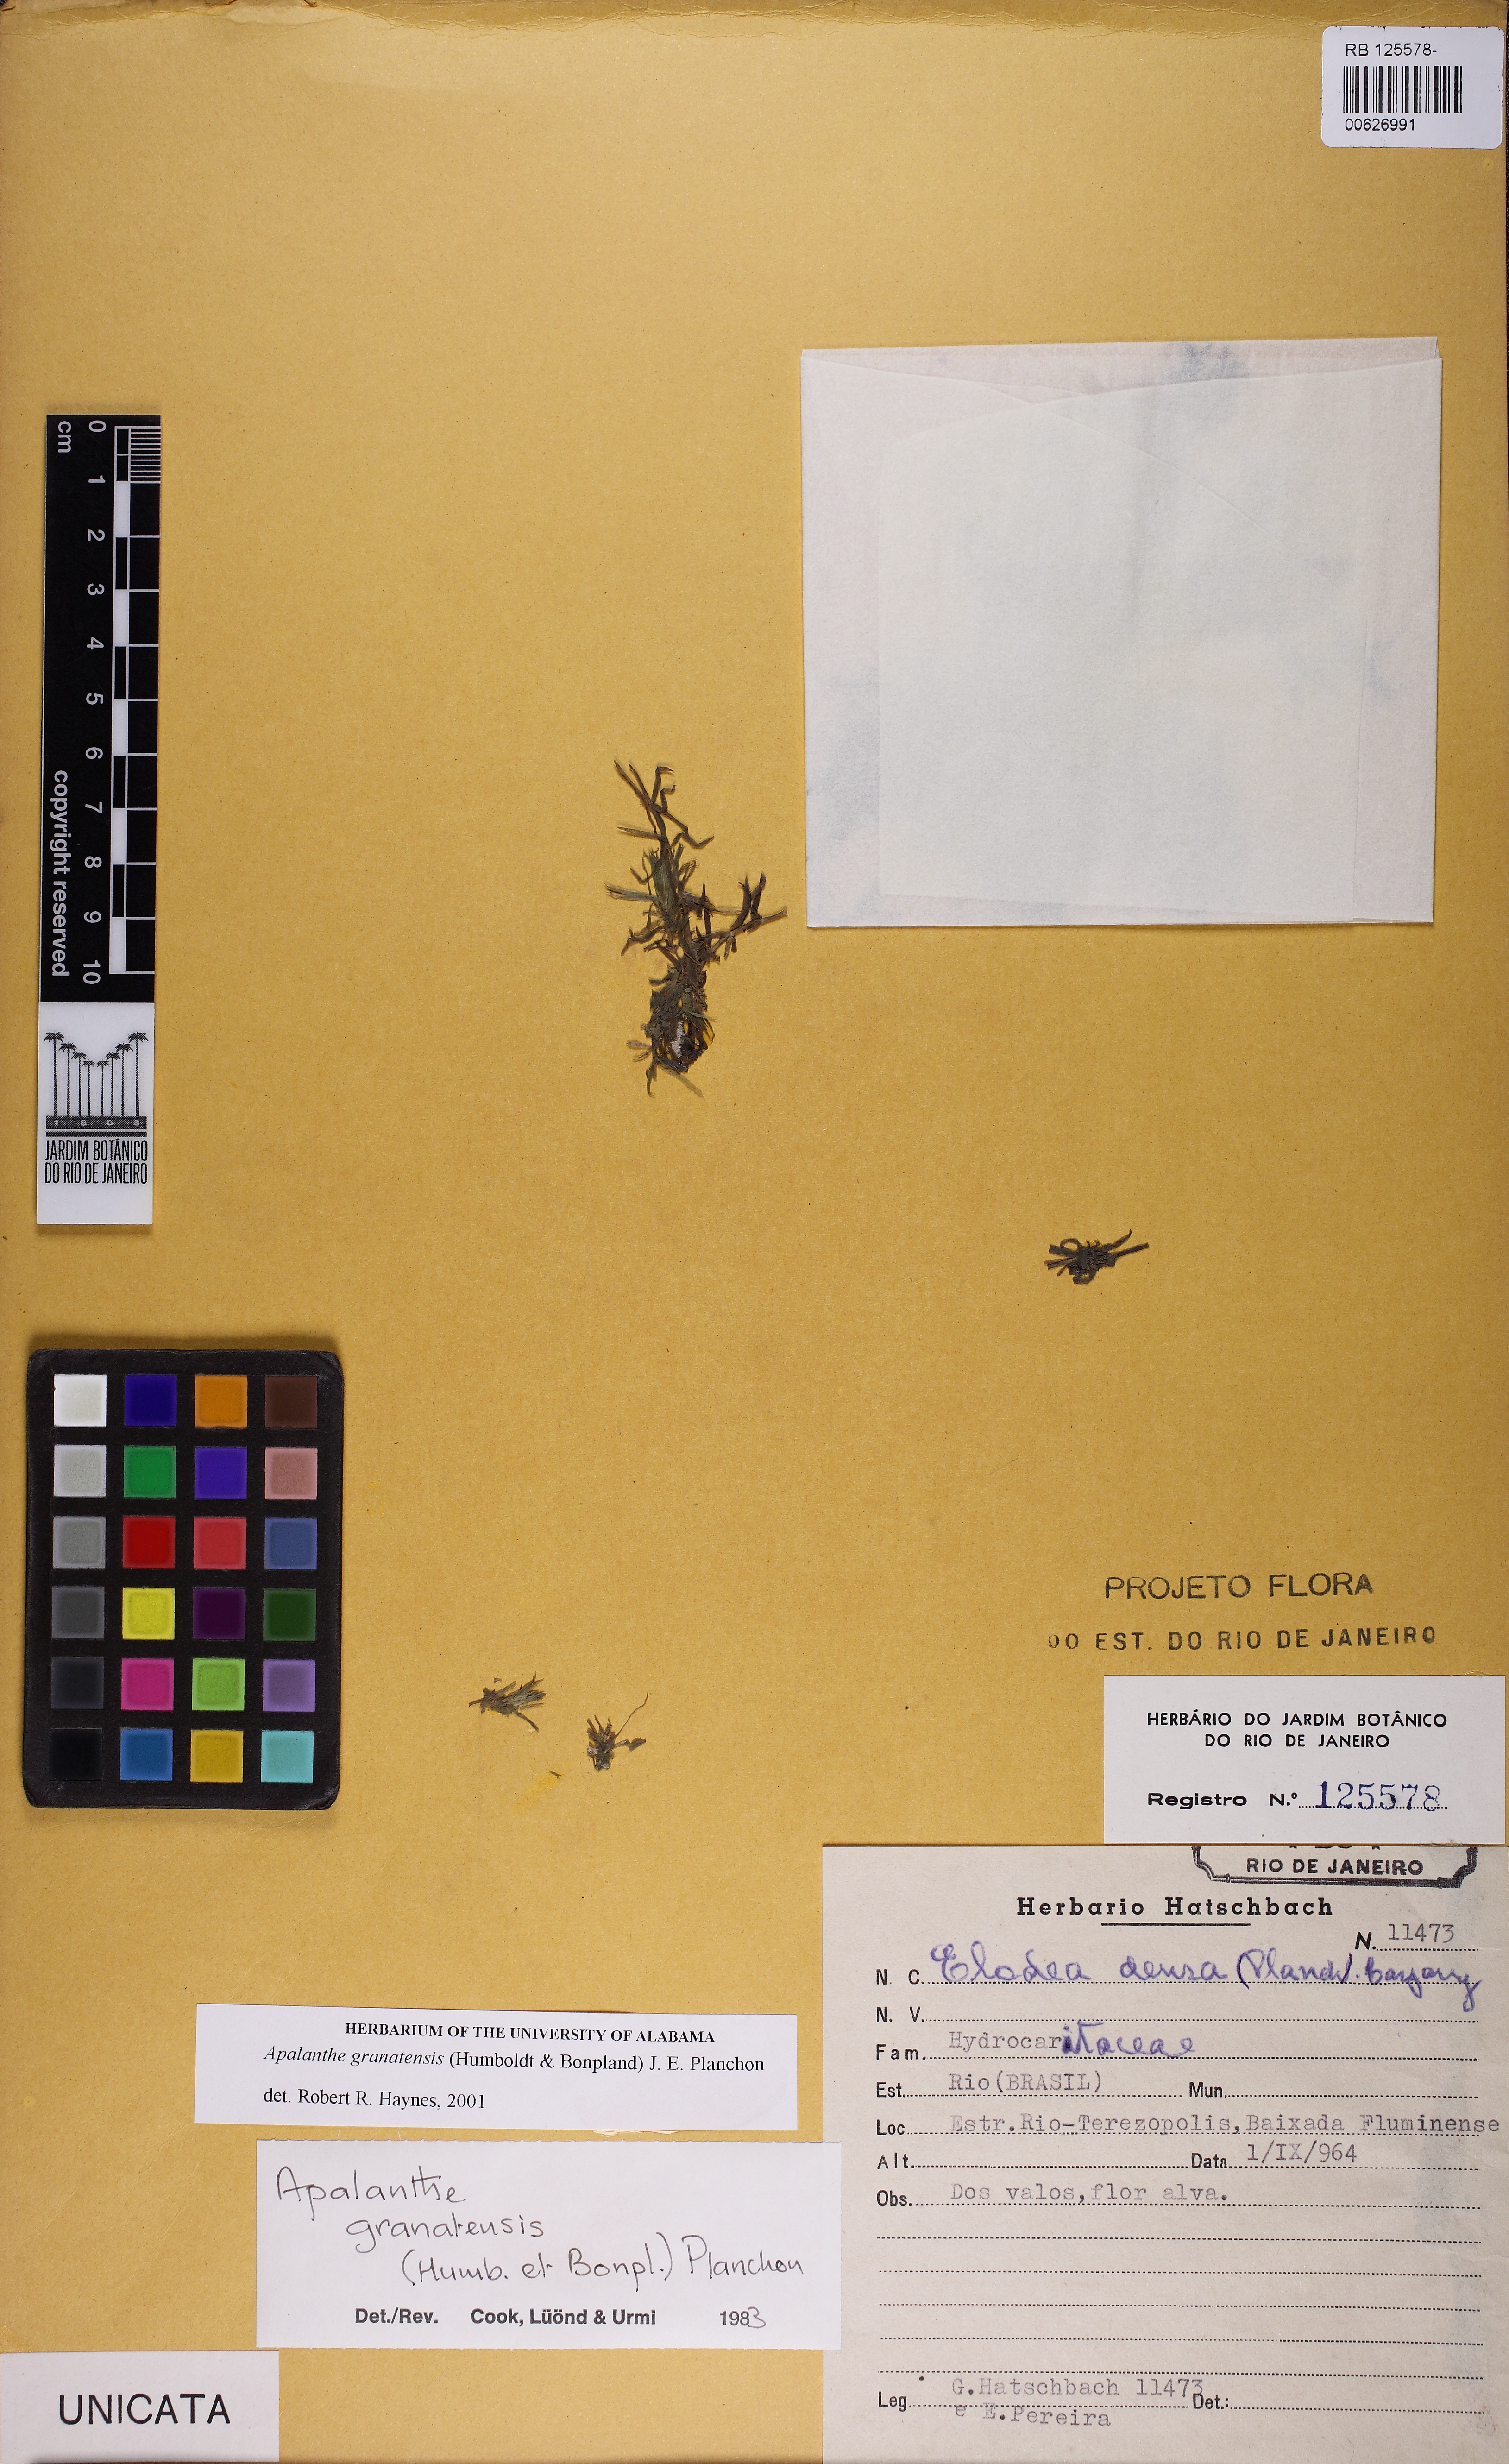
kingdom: Plantae
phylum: Tracheophyta
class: Liliopsida
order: Alismatales
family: Hydrocharitaceae
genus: Elodea
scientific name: Elodea granatensis
